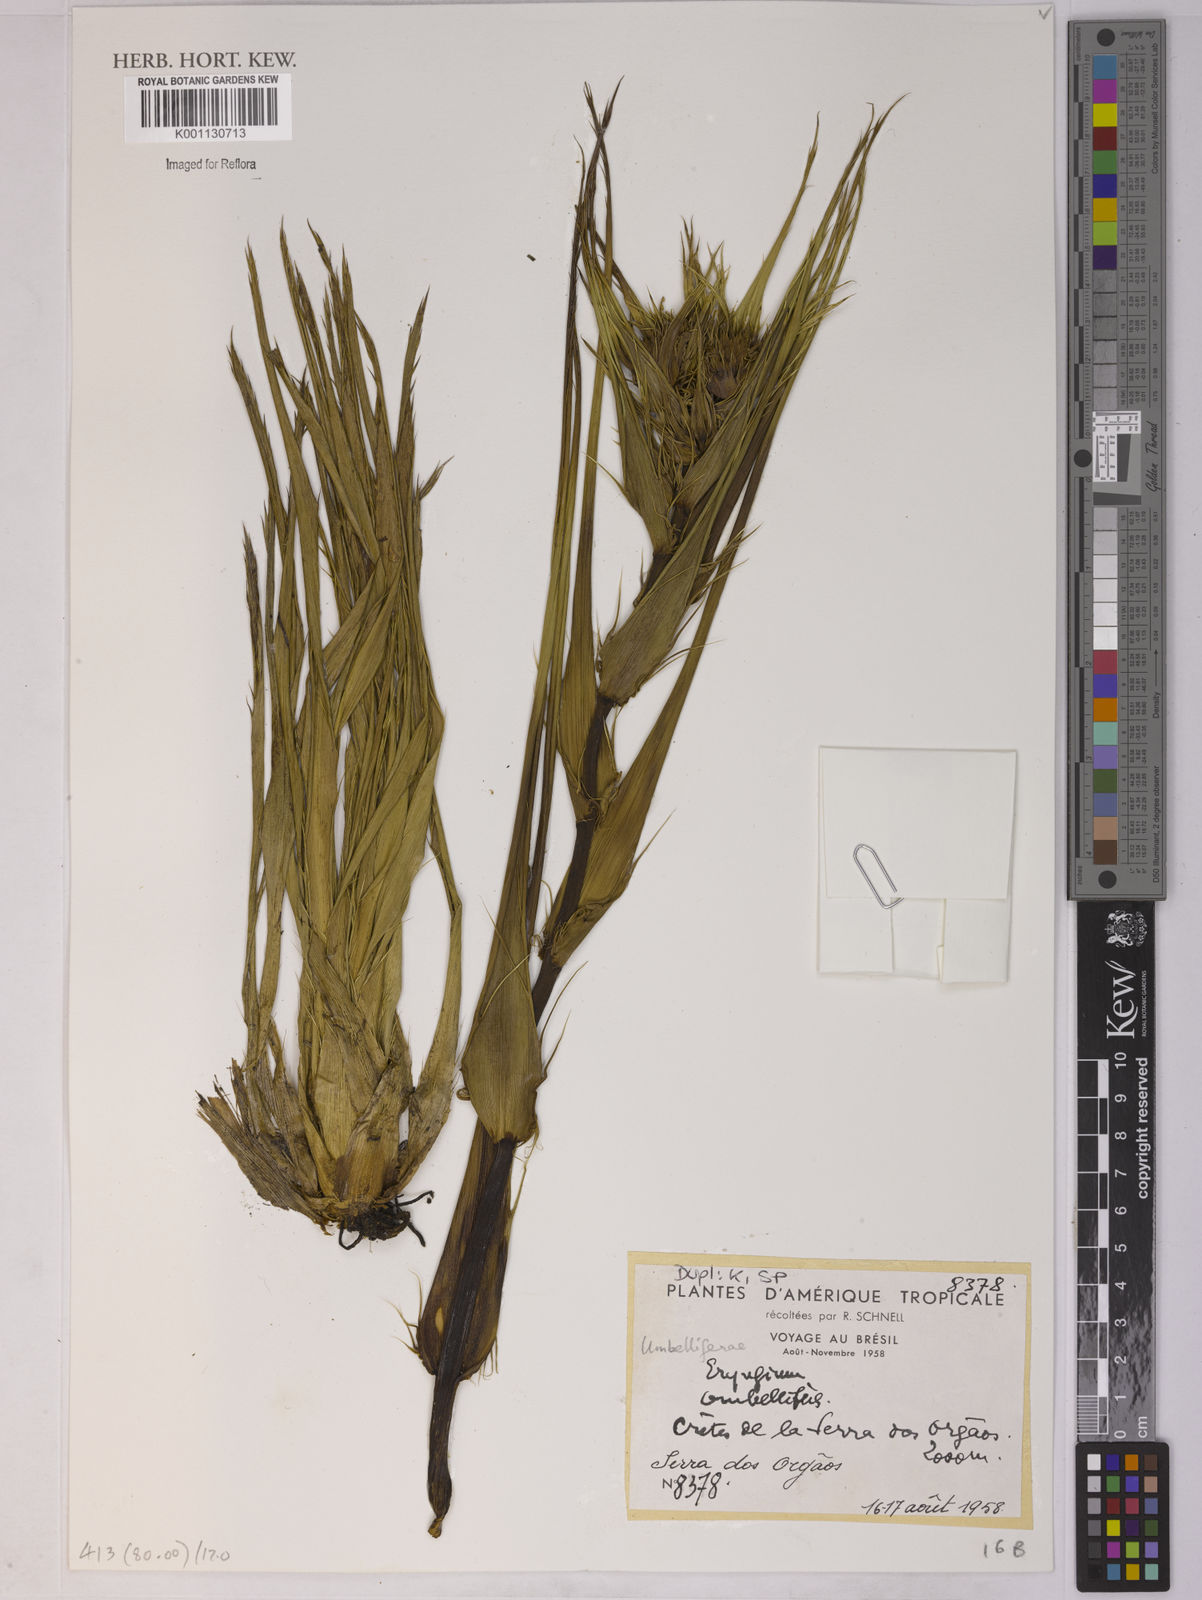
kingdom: Plantae
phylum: Tracheophyta
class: Magnoliopsida
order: Apiales
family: Apiaceae
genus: Eryngium
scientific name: Eryngium
